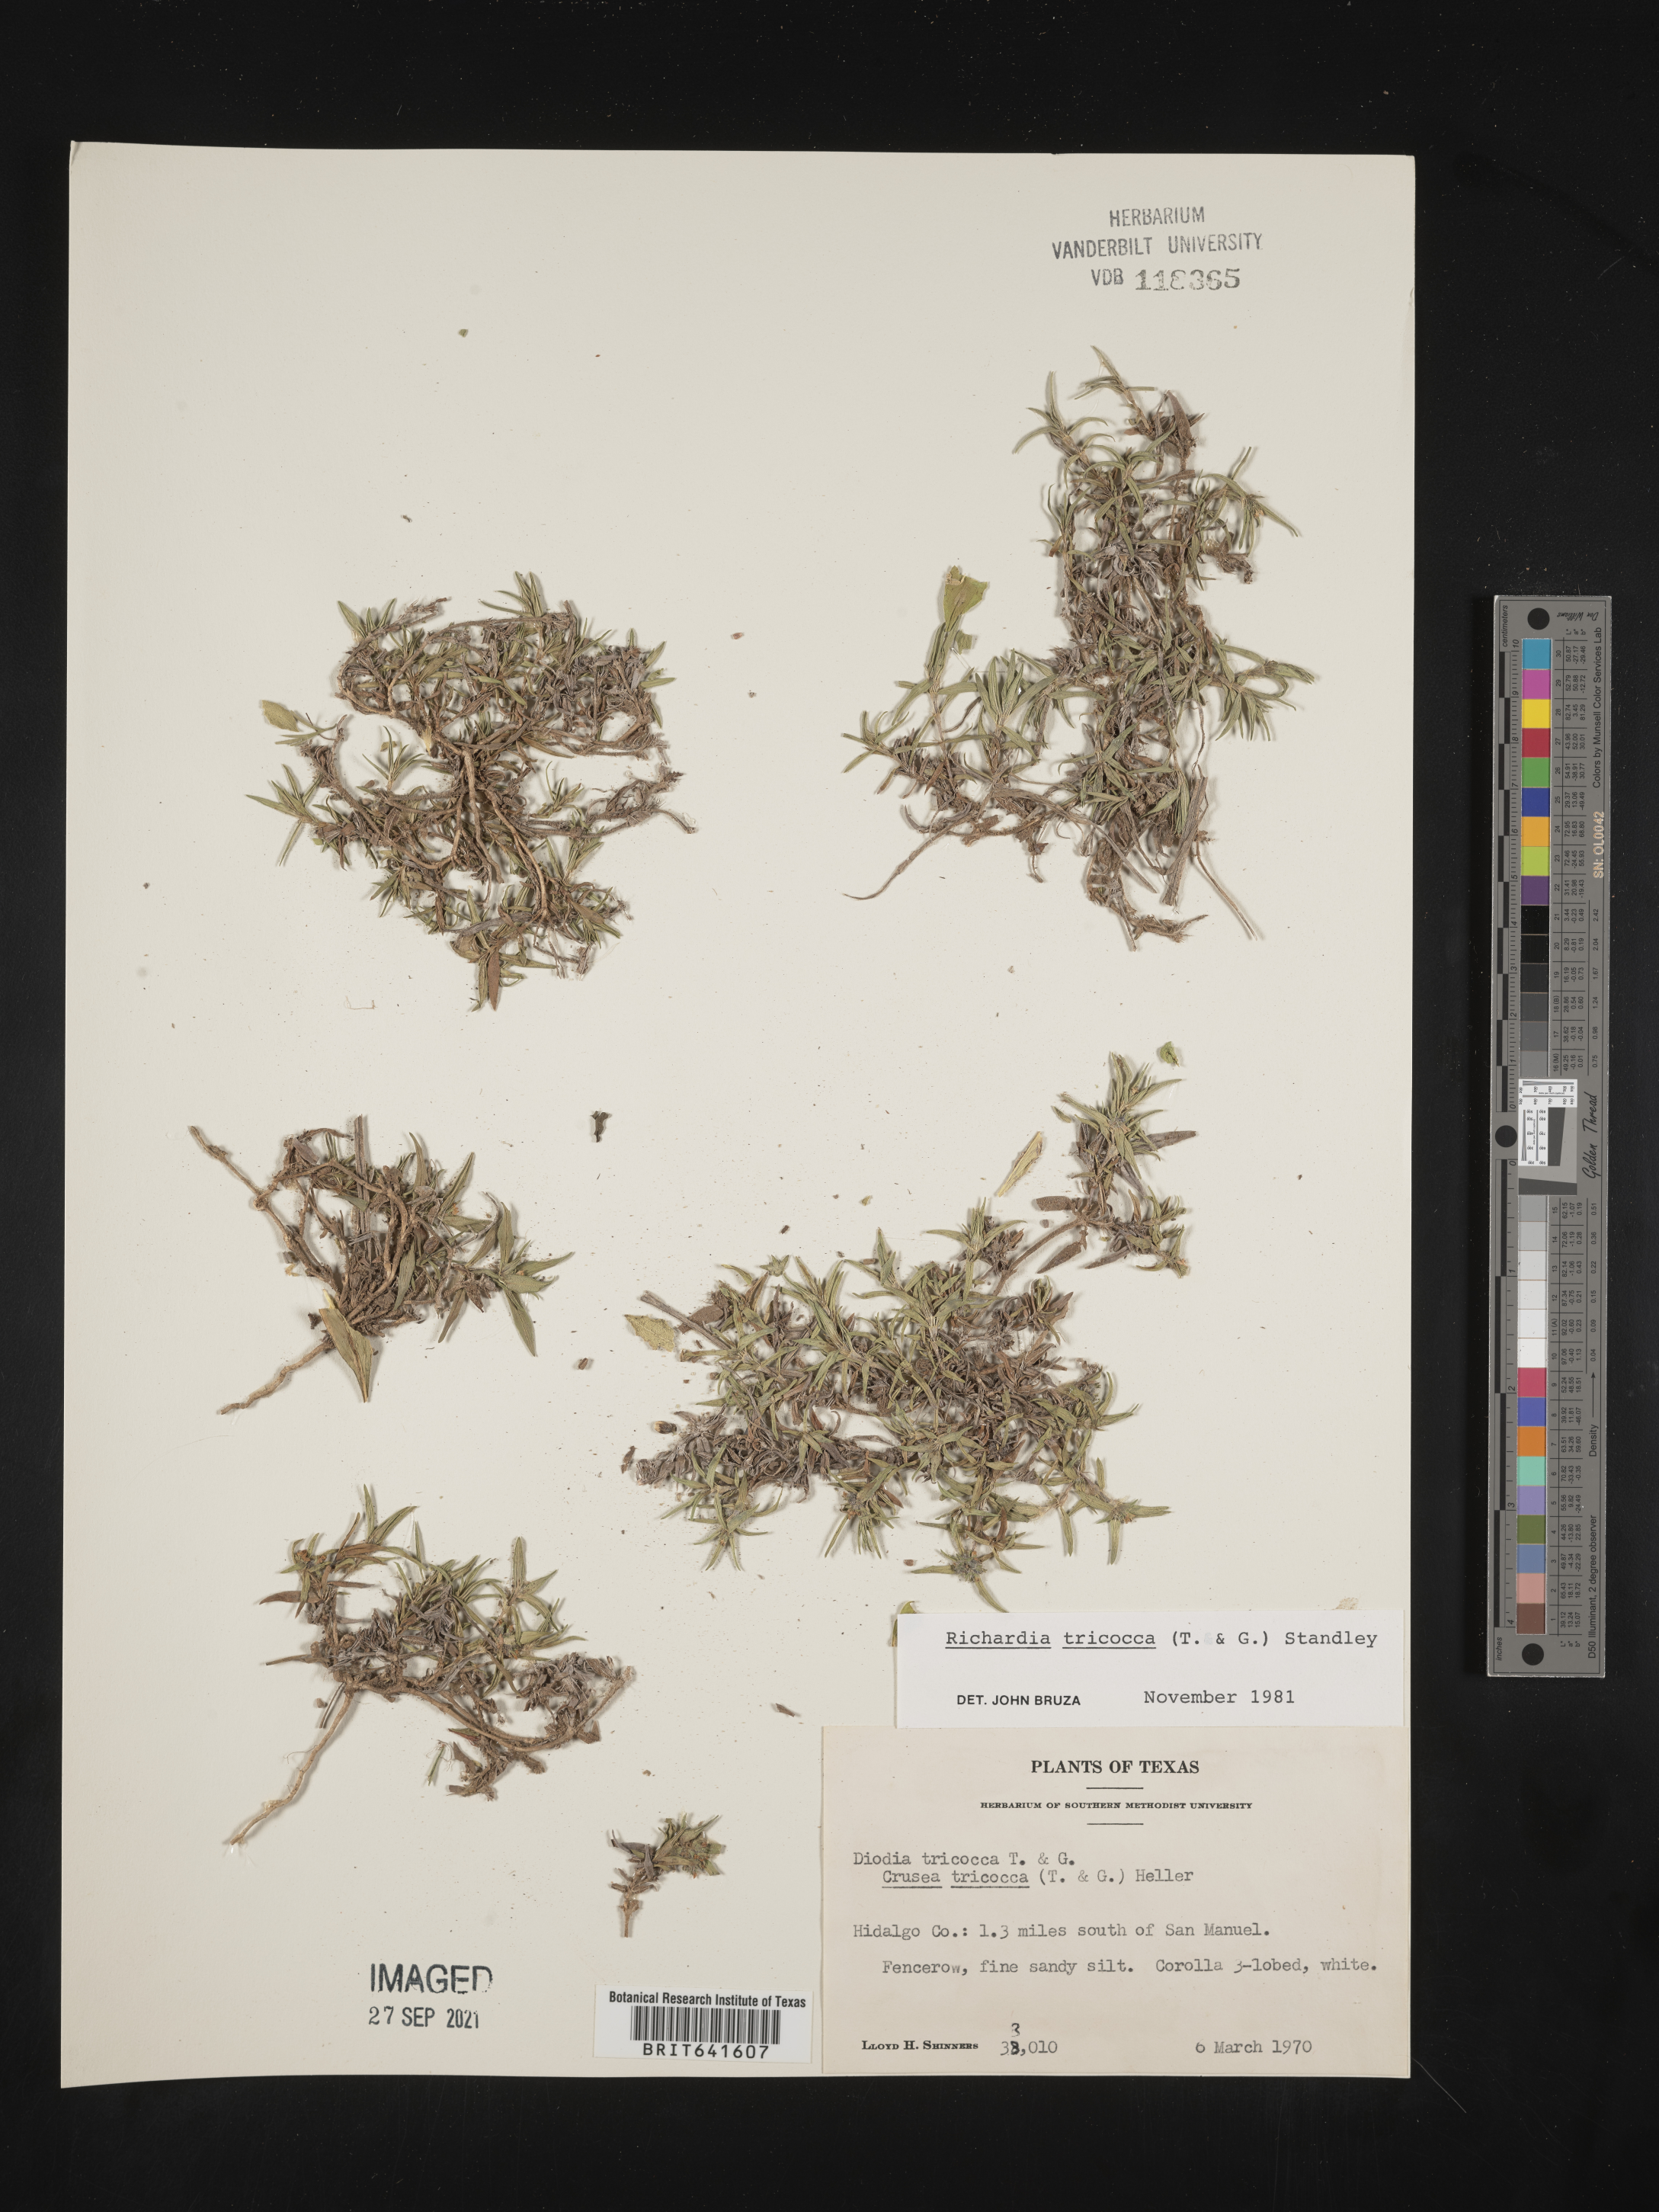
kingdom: Plantae
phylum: Tracheophyta
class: Magnoliopsida
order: Gentianales
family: Rubiaceae
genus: Richardia
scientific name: Richardia tricocca
